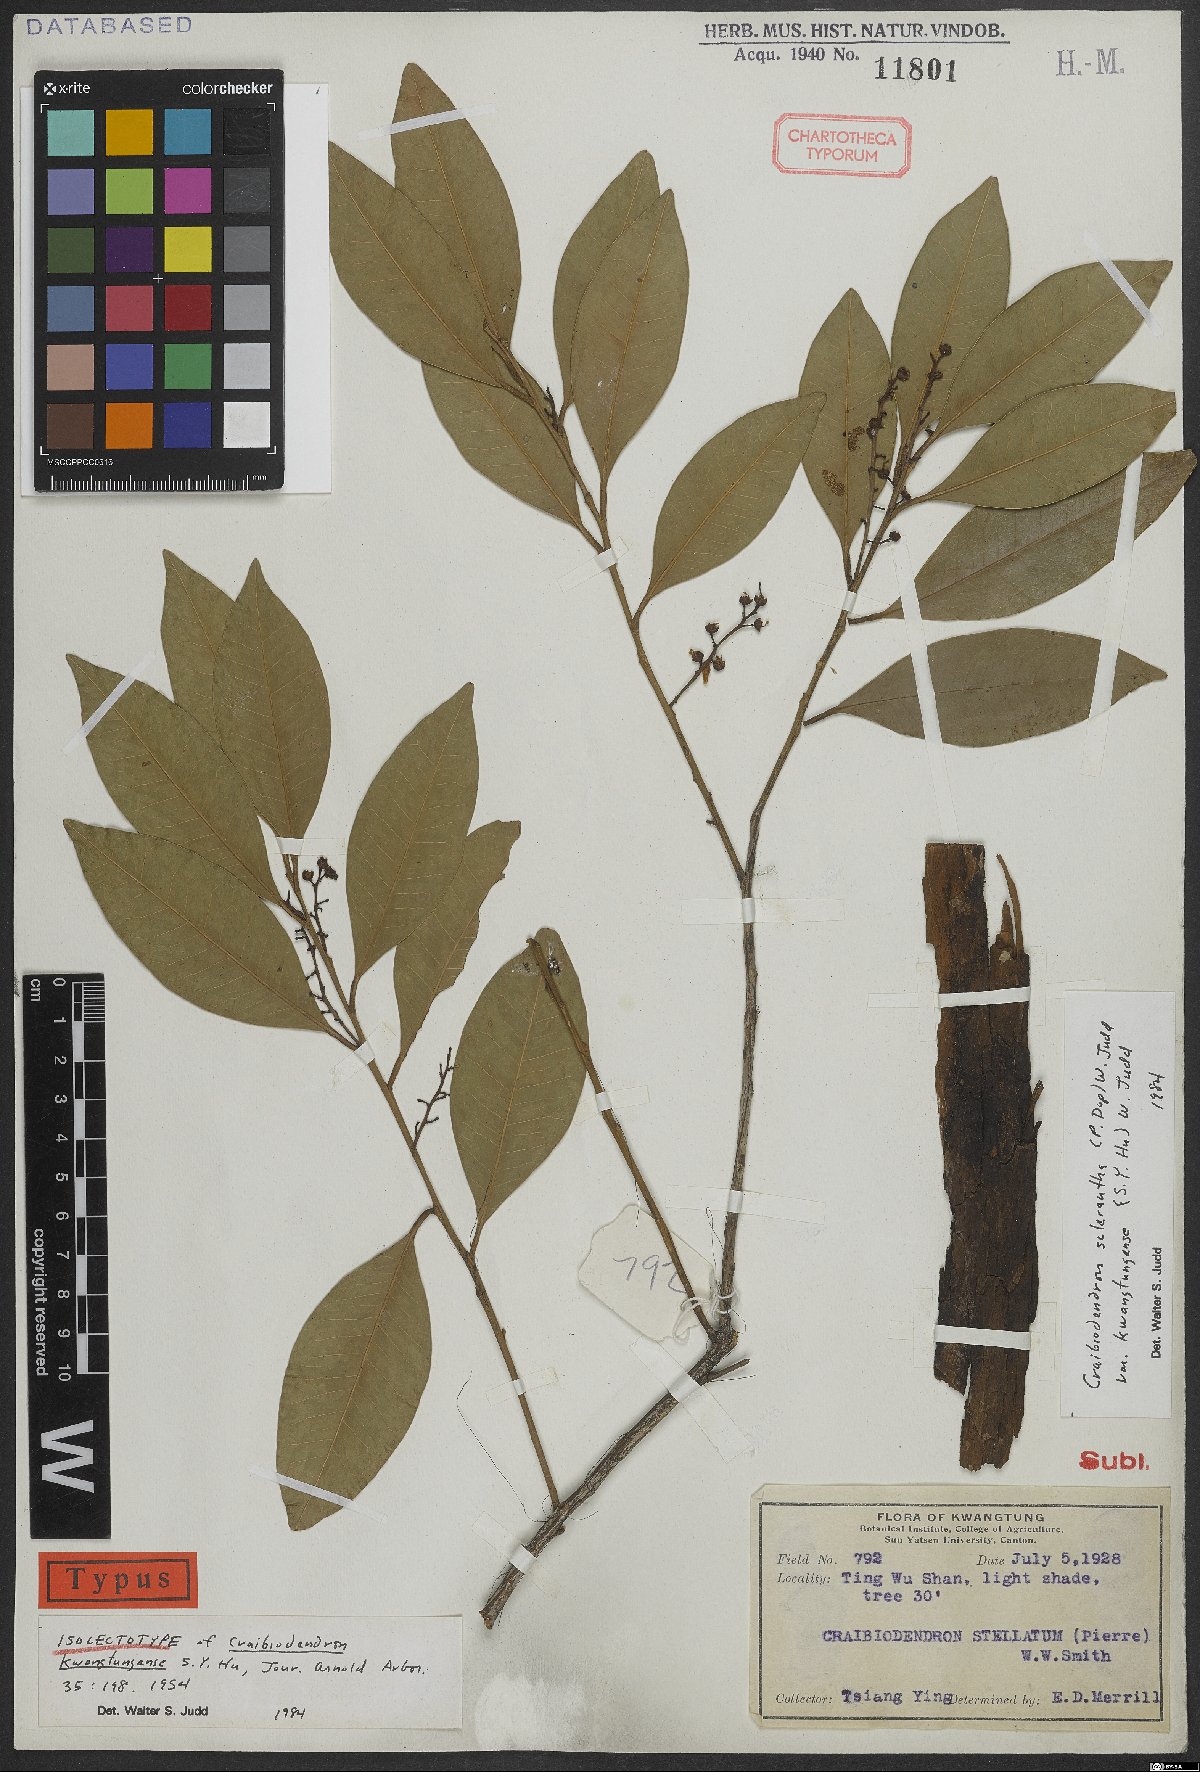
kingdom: Plantae
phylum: Tracheophyta
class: Magnoliopsida
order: Ericales
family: Ericaceae
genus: Craibiodendron
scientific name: Craibiodendron scleranthum
